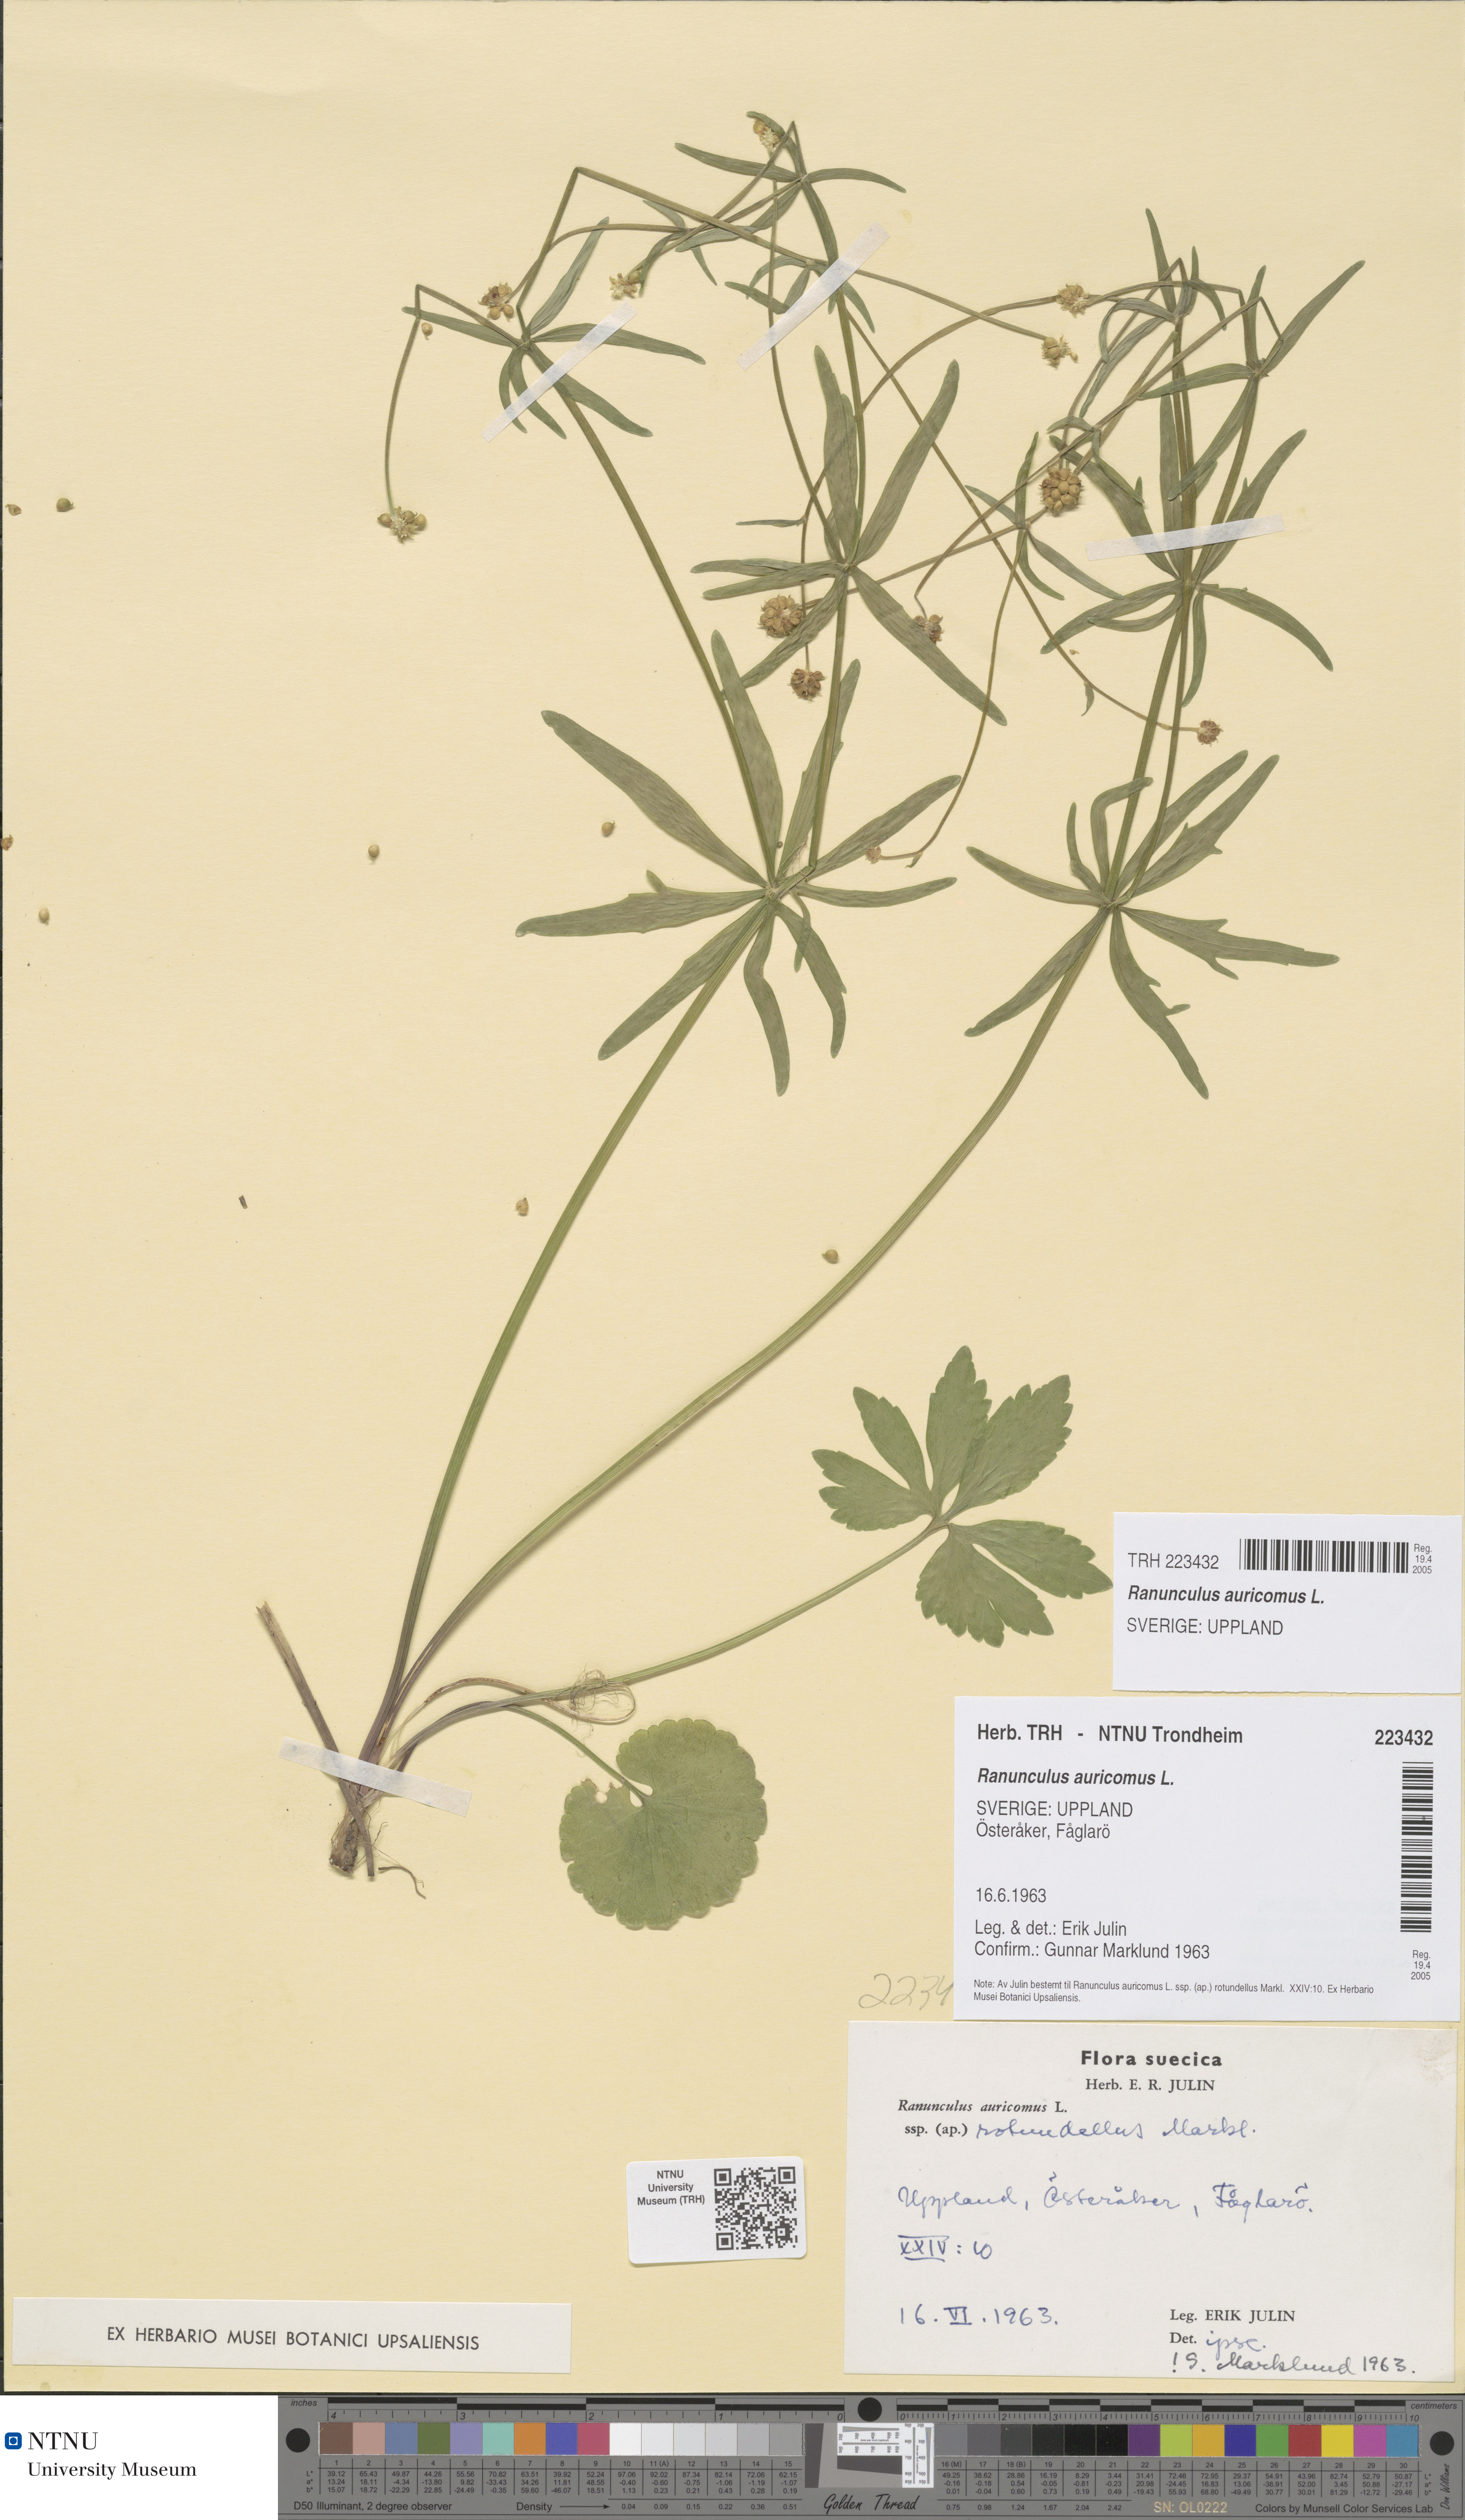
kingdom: Plantae
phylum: Tracheophyta
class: Magnoliopsida
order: Ranunculales
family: Ranunculaceae
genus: Ranunculus
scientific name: Ranunculus auricomus
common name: Goldilocks buttercup
